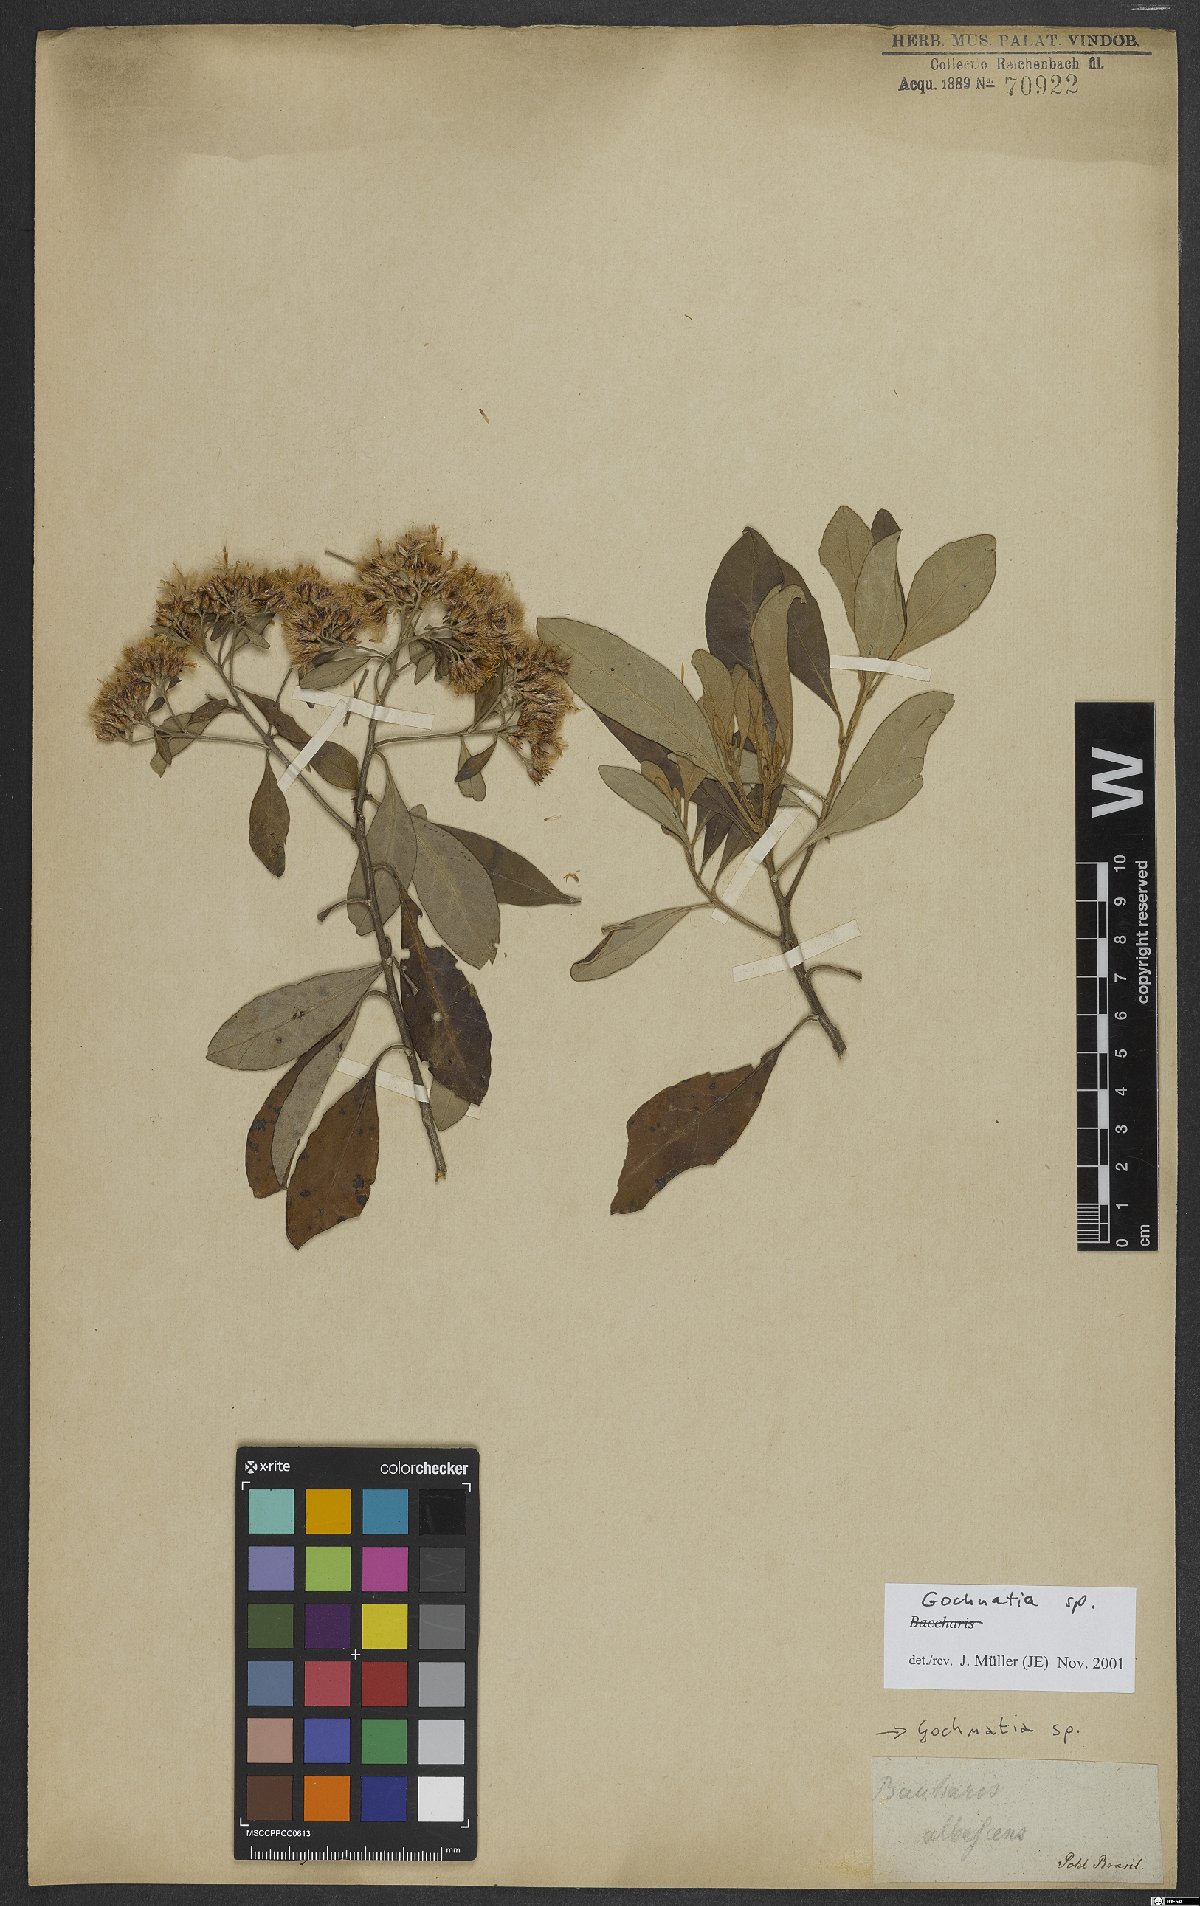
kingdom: Plantae
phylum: Tracheophyta
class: Magnoliopsida
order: Asterales
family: Asteraceae
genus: Gochnatia
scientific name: Gochnatia
